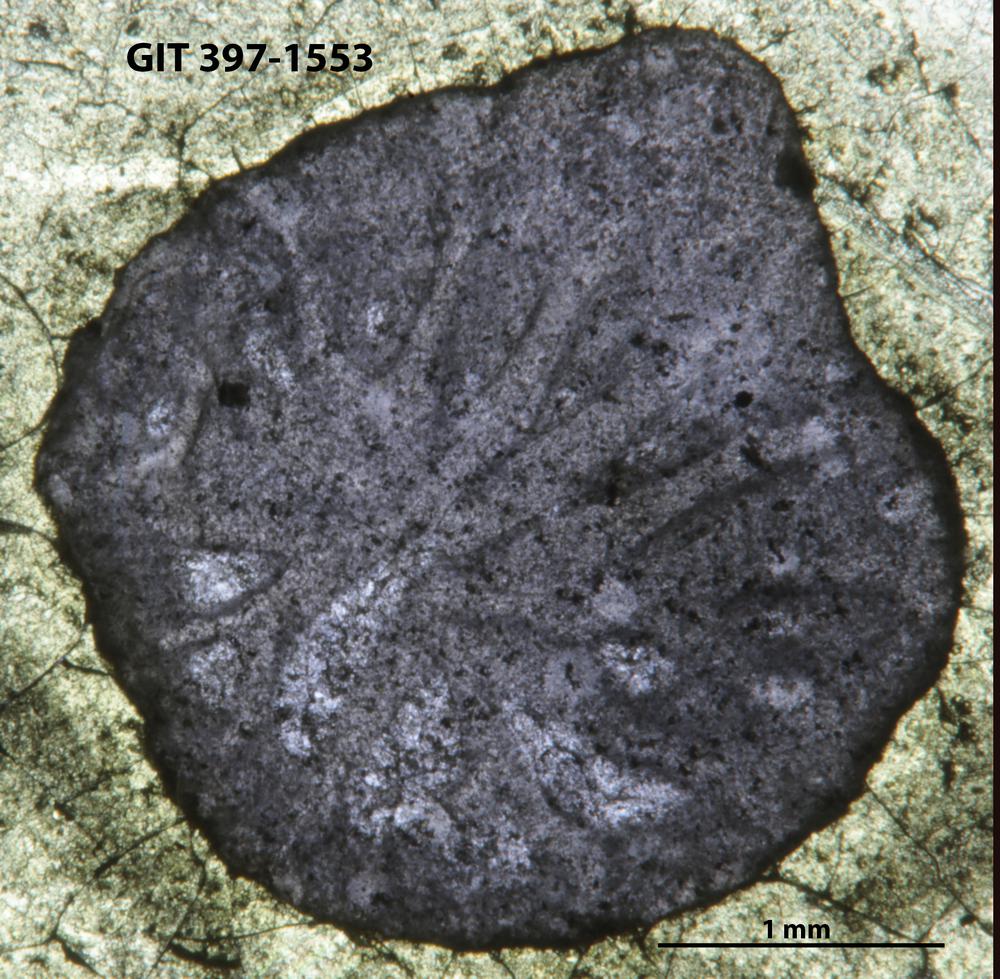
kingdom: Animalia
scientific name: Animalia
